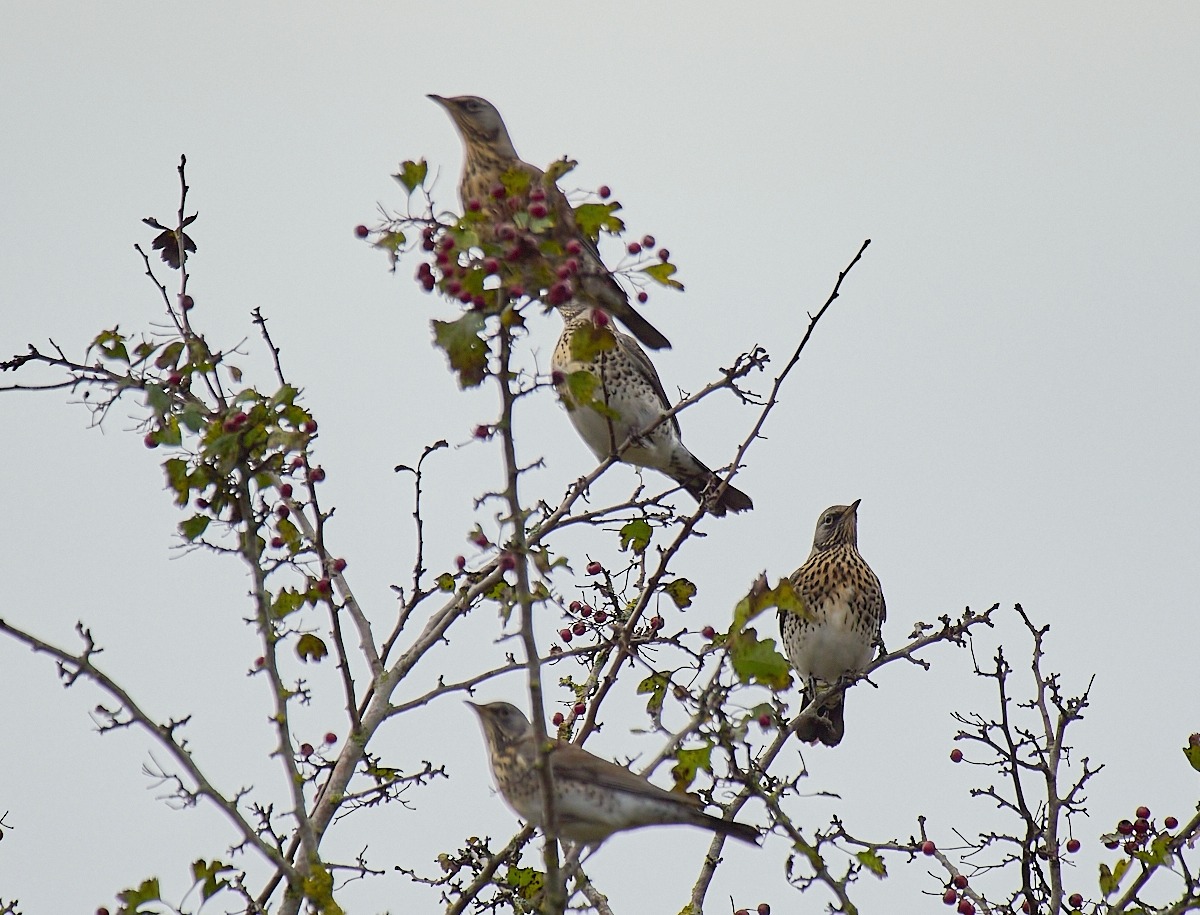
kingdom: Animalia
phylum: Chordata
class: Aves
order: Passeriformes
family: Turdidae
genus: Turdus
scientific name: Turdus pilaris
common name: Sjagger
